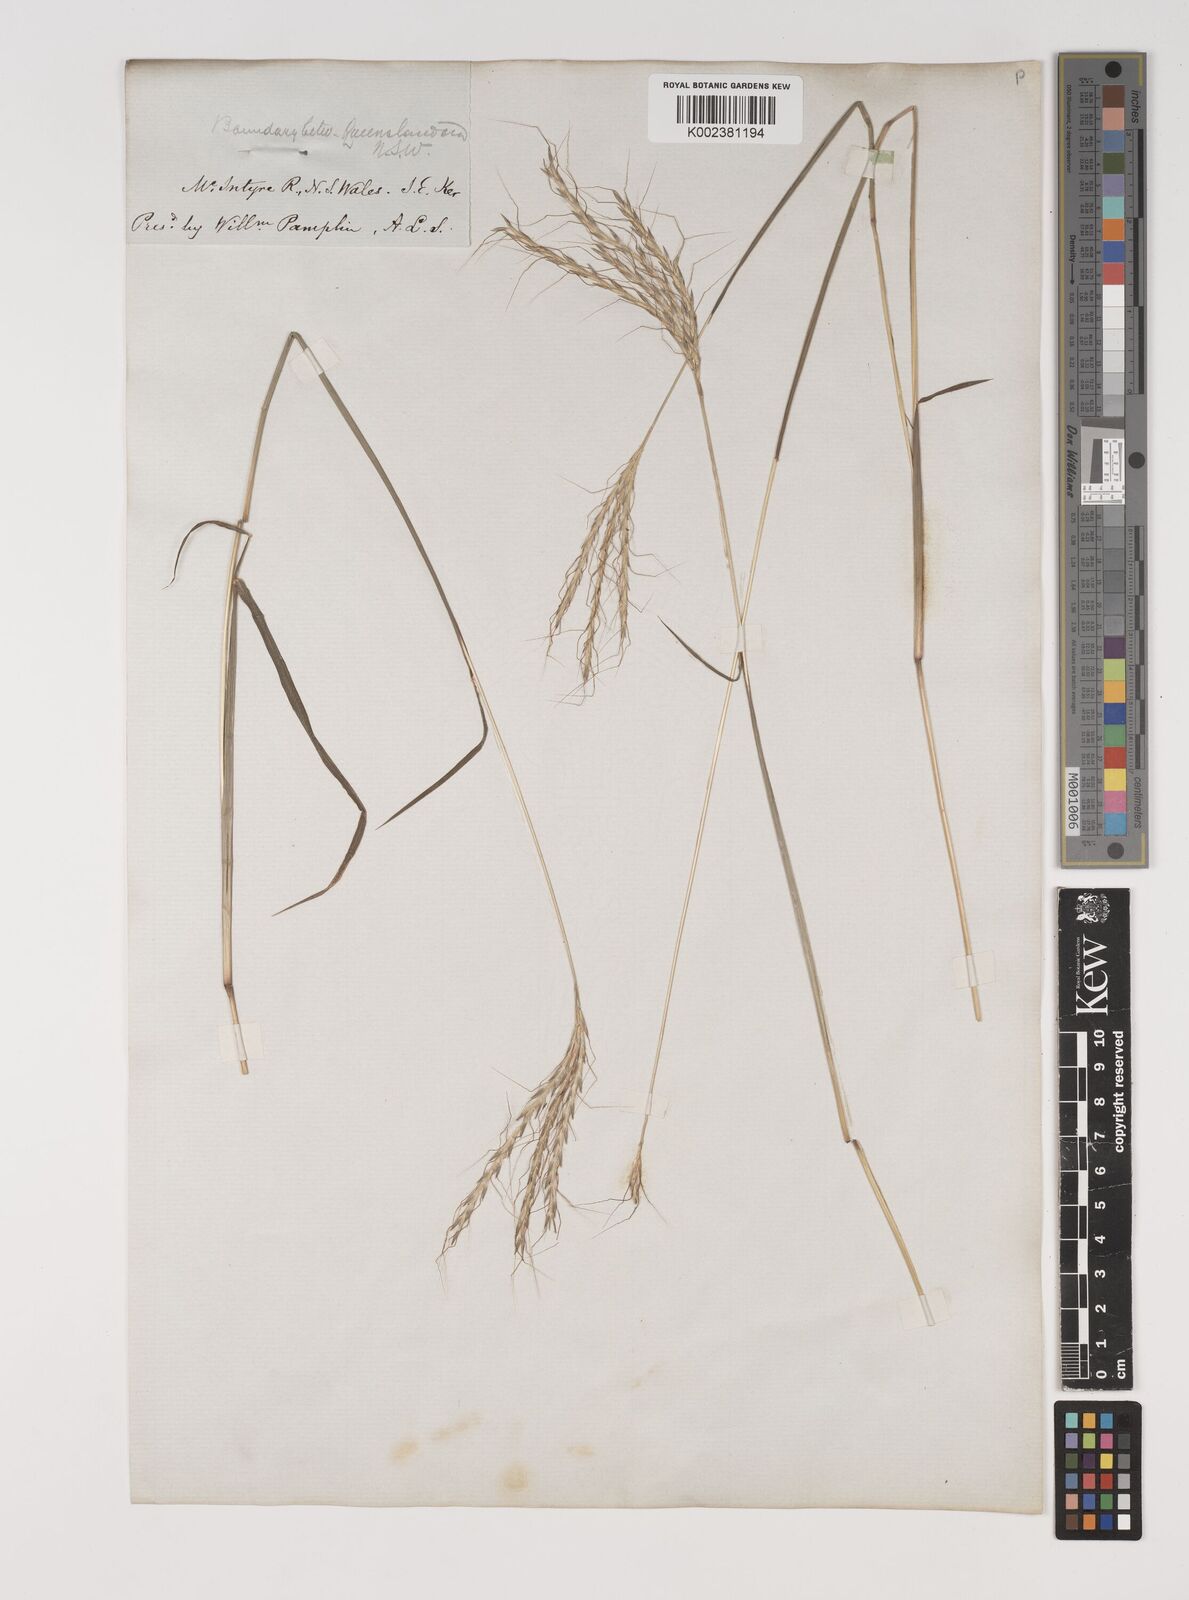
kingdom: Plantae
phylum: Tracheophyta
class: Liliopsida
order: Poales
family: Poaceae
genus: Bothriochloa
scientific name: Bothriochloa macra
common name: Pitted beard grass
